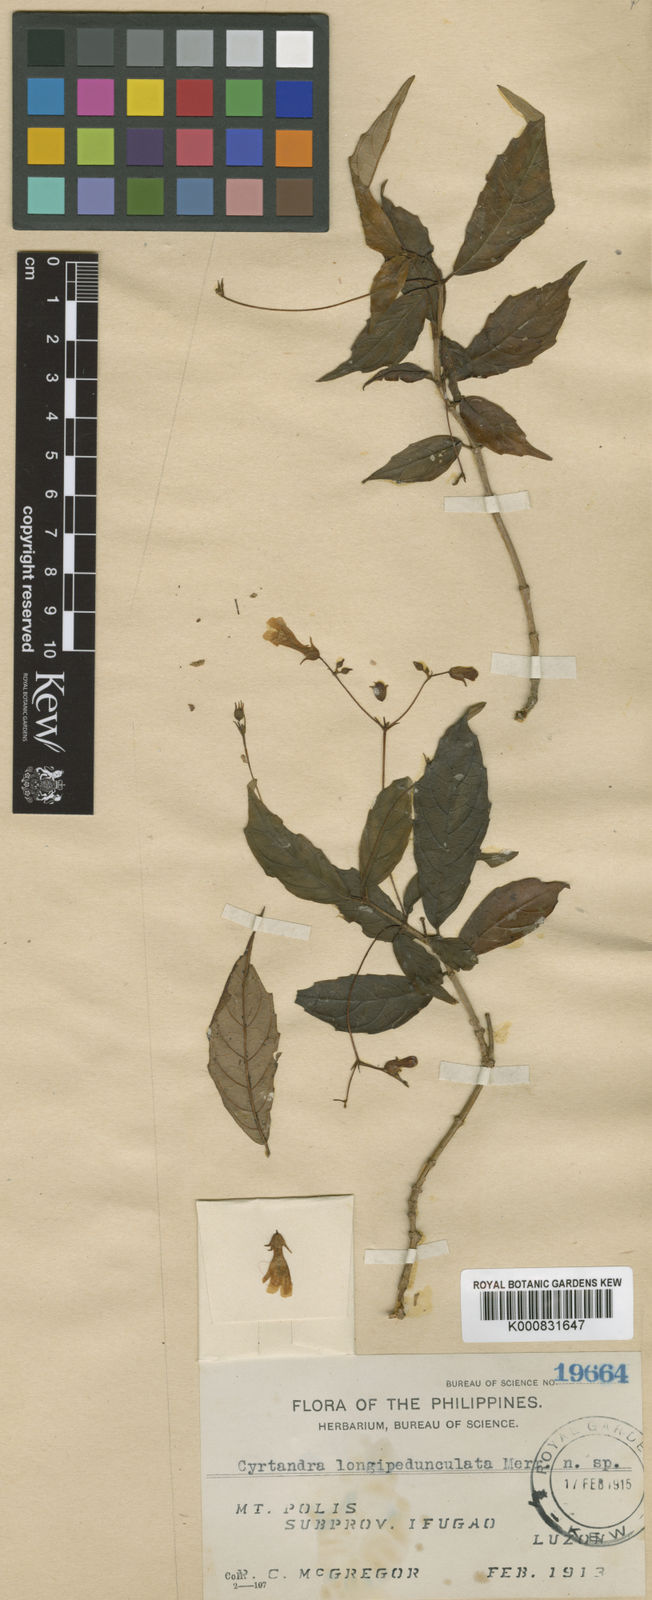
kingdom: Plantae
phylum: Tracheophyta
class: Magnoliopsida
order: Lamiales
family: Gesneriaceae
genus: Cyrtandra
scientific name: Cyrtandra tenuipes
